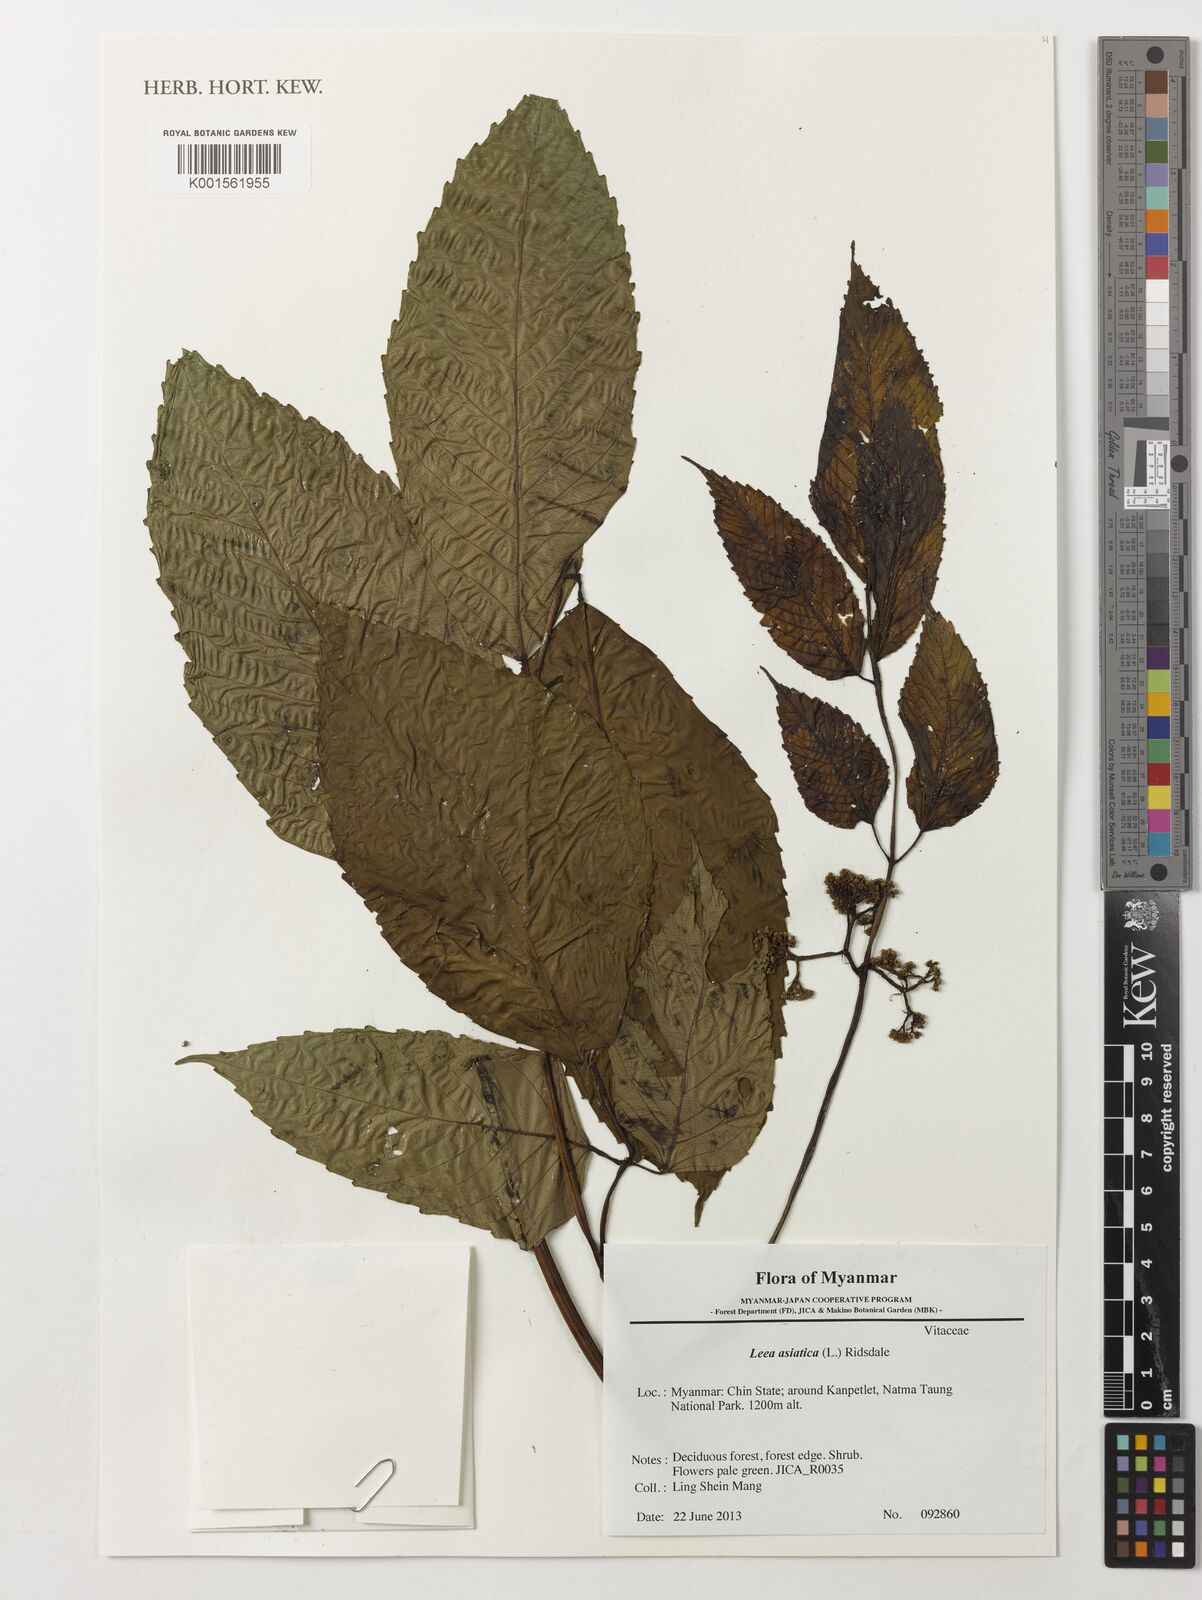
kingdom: Plantae
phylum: Tracheophyta
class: Magnoliopsida
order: Vitales
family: Vitaceae
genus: Leea
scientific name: Leea asiatica
